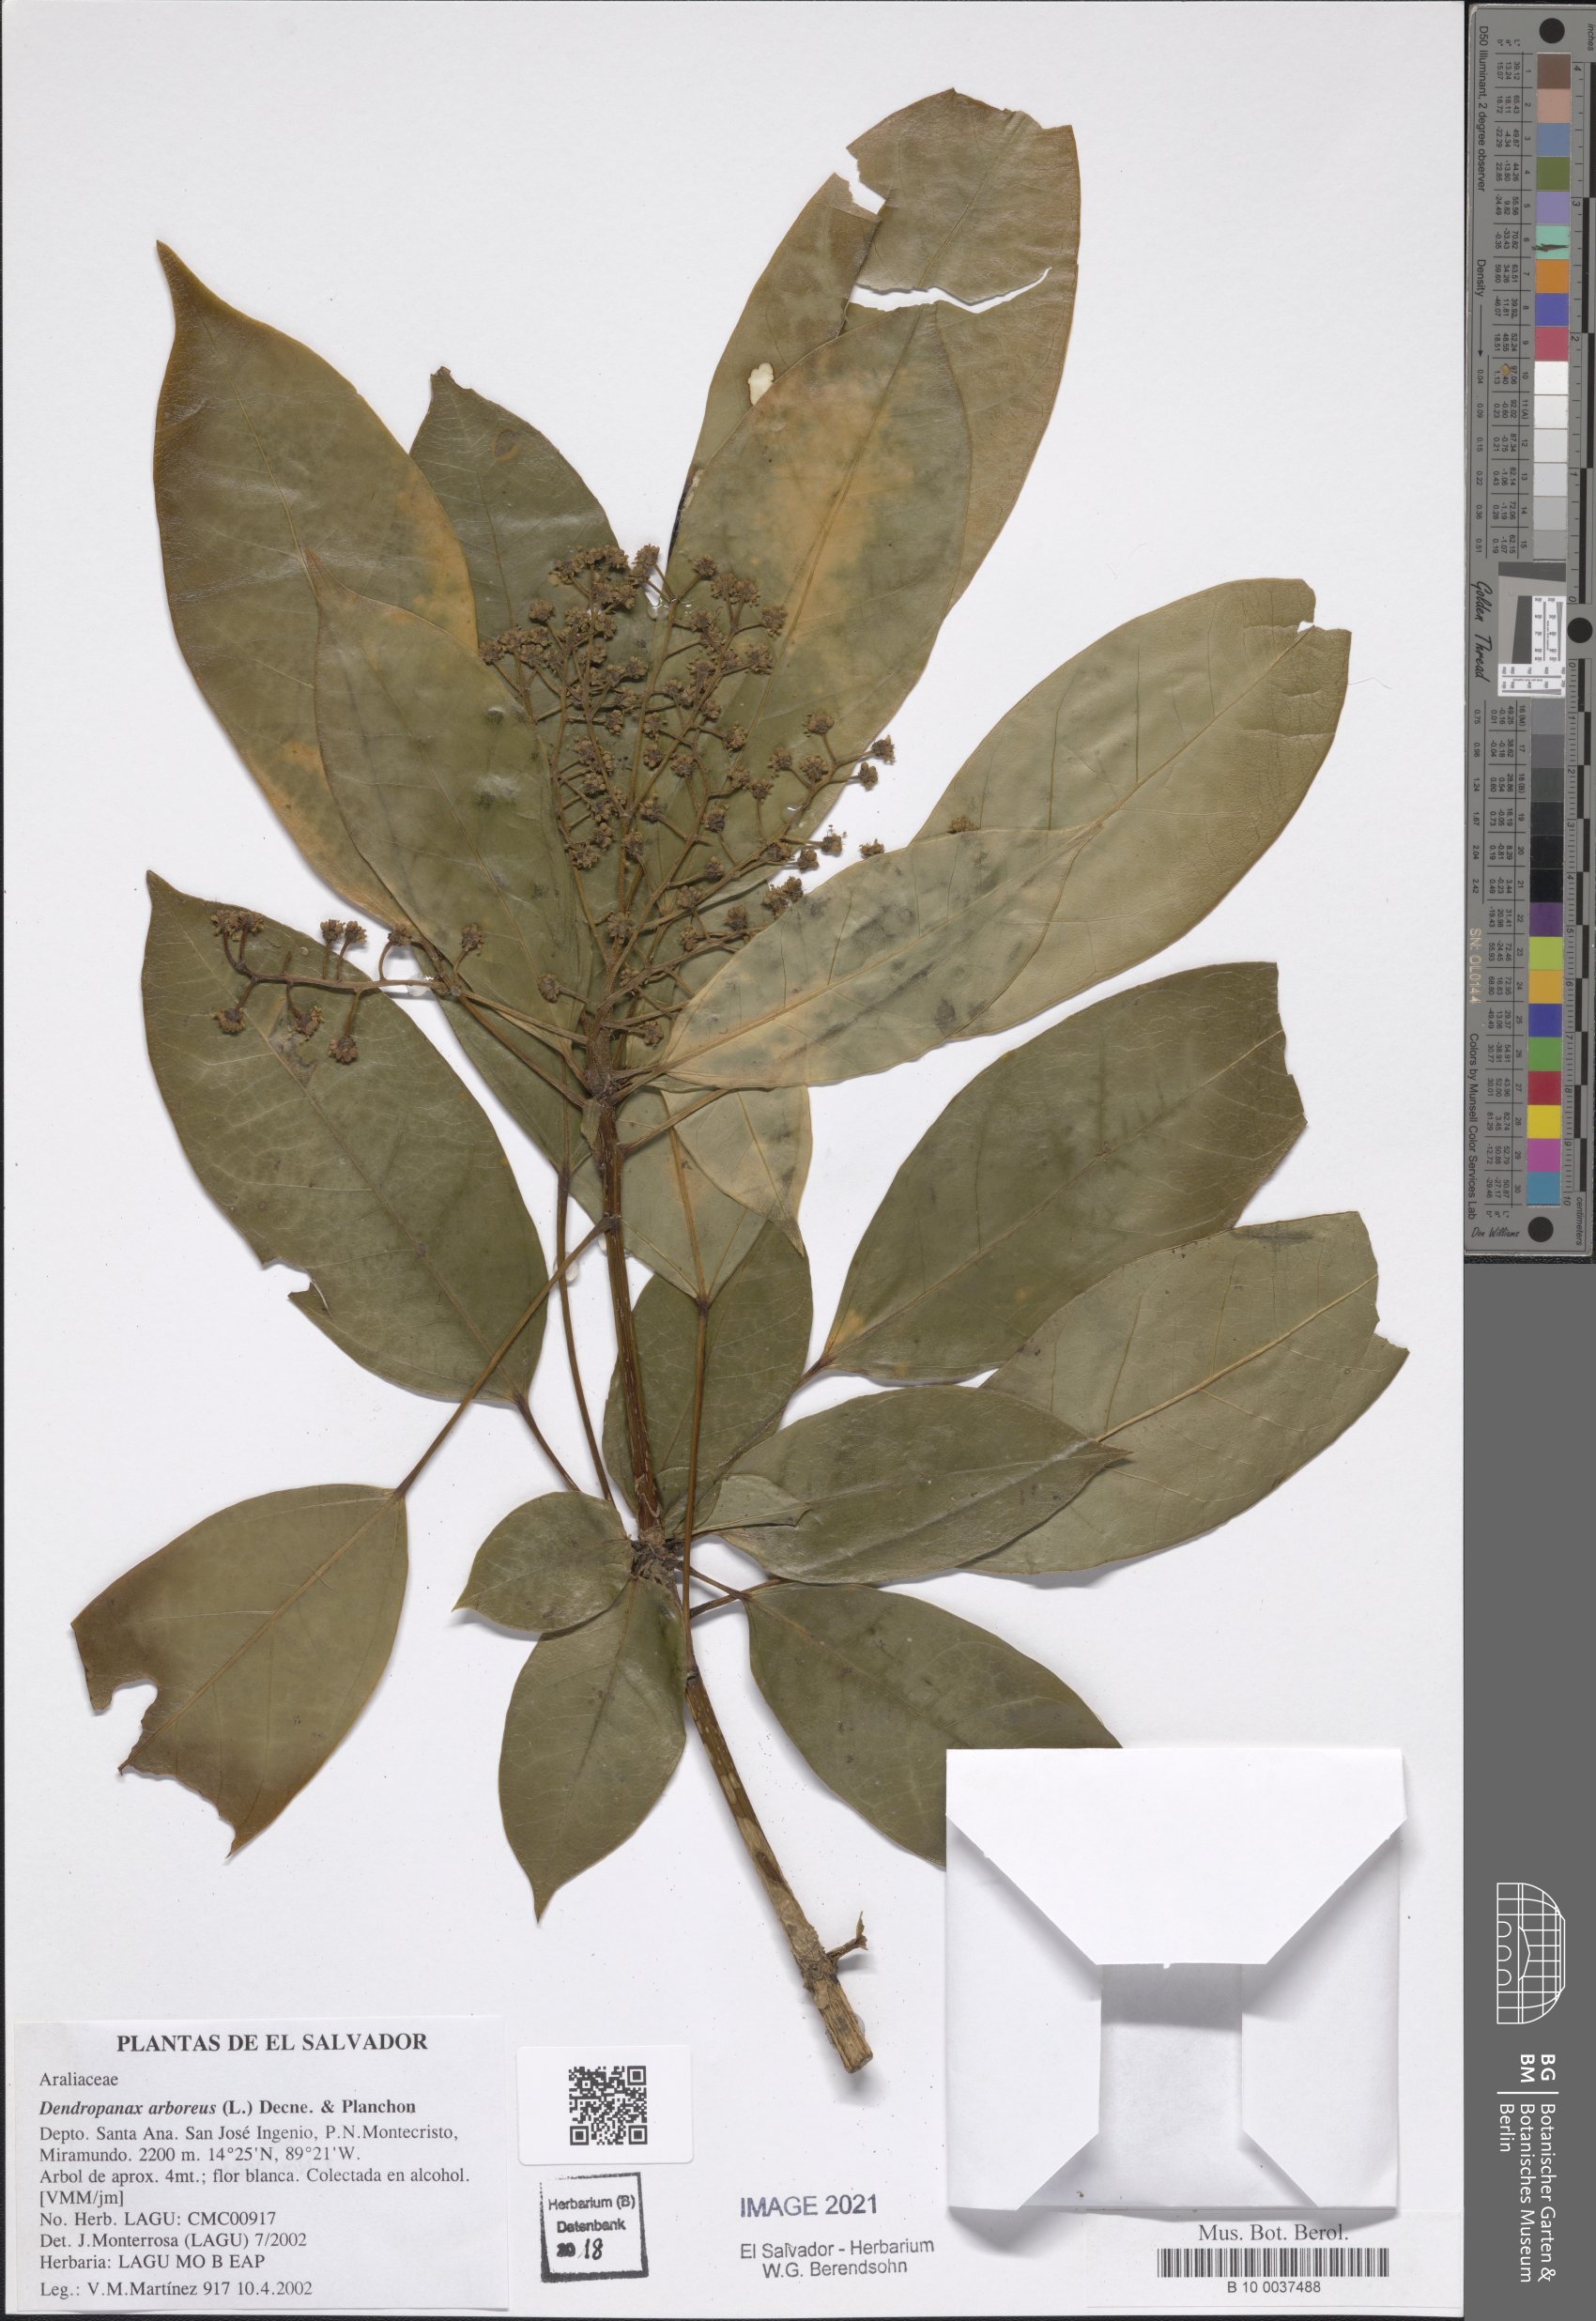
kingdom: Plantae
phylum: Tracheophyta
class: Magnoliopsida
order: Apiales
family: Araliaceae
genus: Oreopanax
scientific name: Oreopanax capitatus
